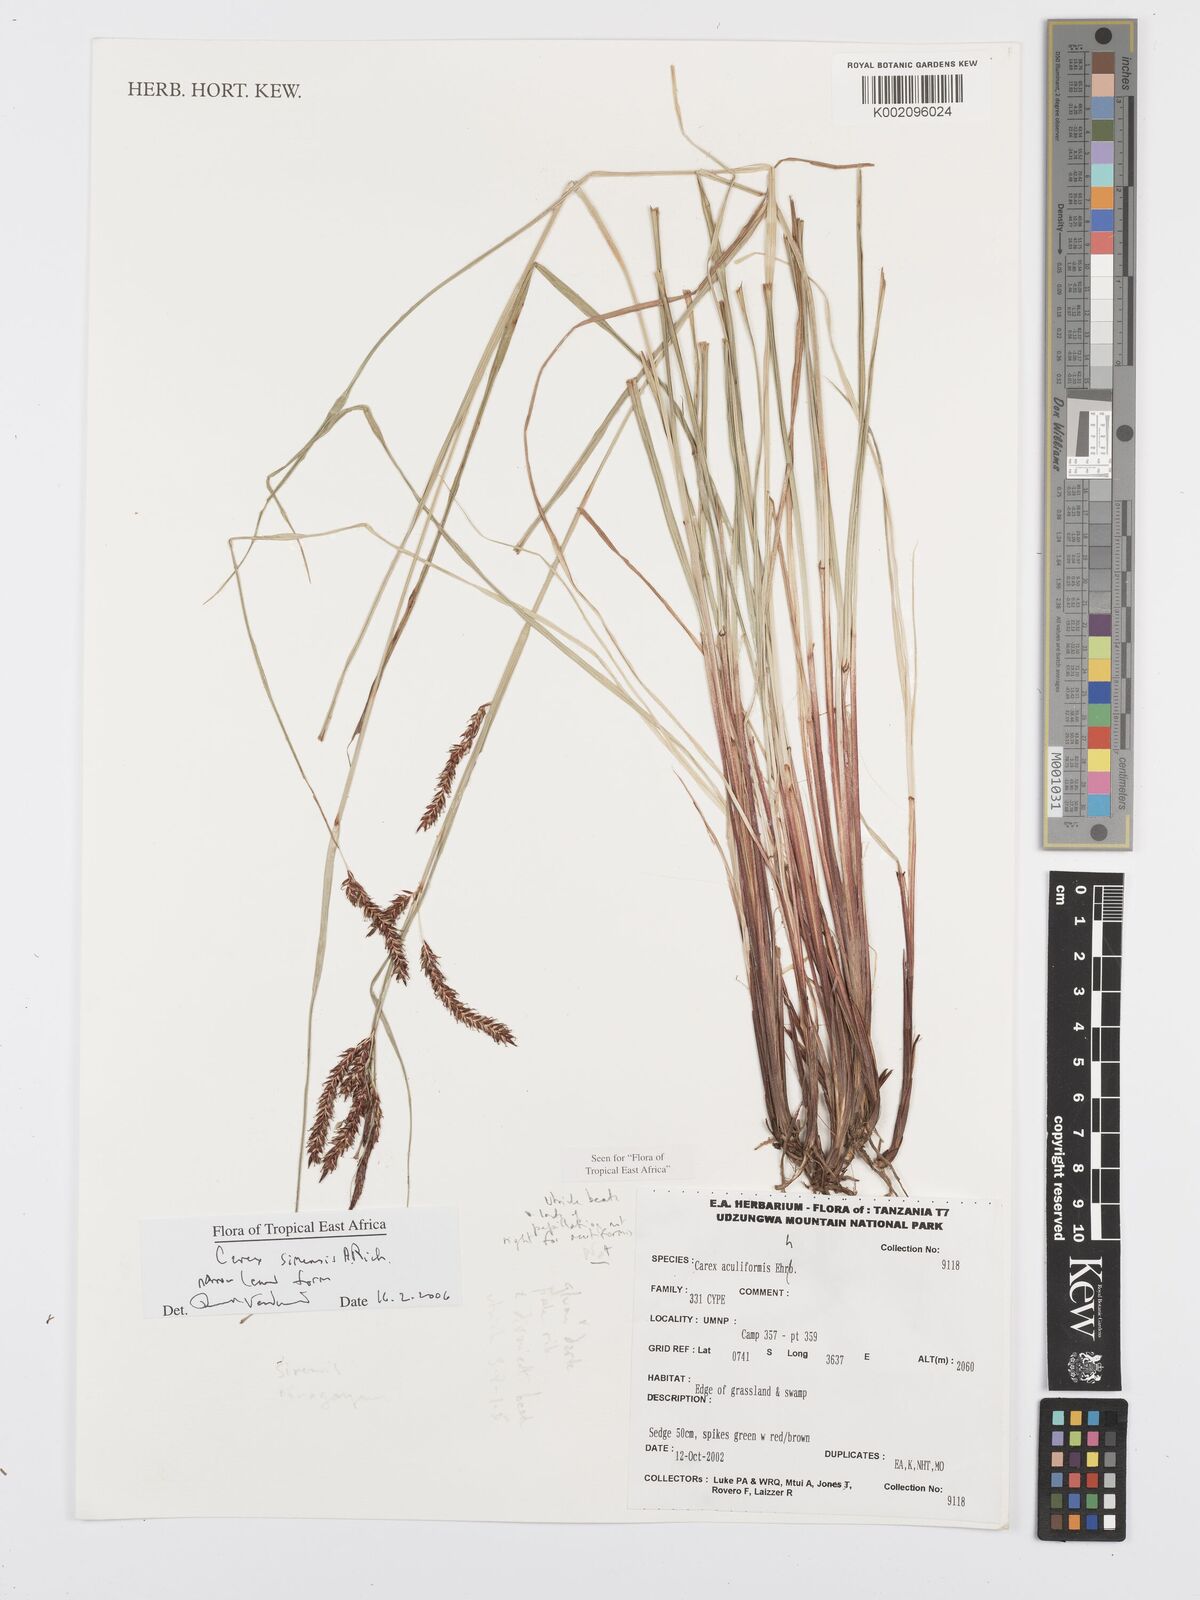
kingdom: Plantae
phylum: Tracheophyta
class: Liliopsida
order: Poales
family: Cyperaceae
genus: Carex
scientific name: Carex simensis
